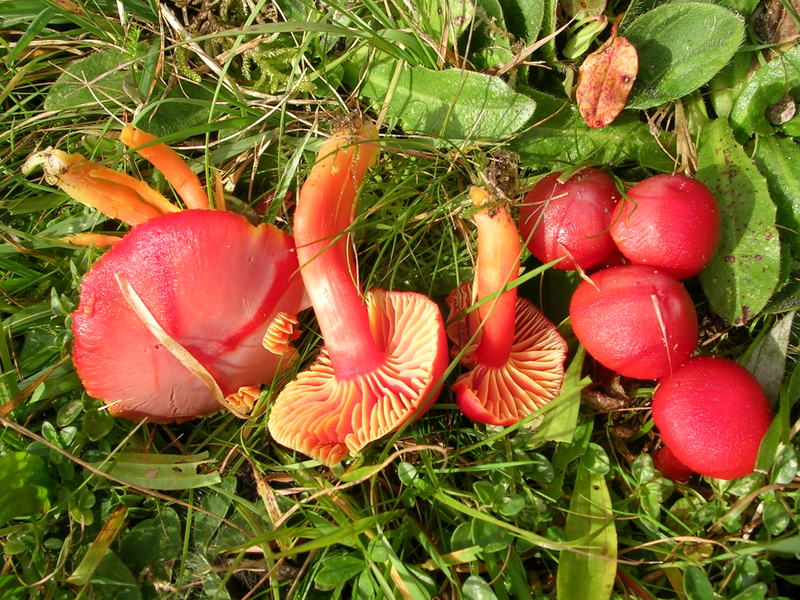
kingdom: Fungi
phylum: Basidiomycota
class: Agaricomycetes
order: Agaricales
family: Hygrophoraceae
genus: Hygrocybe
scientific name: Hygrocybe coccinea
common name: cinnober-vokshat
